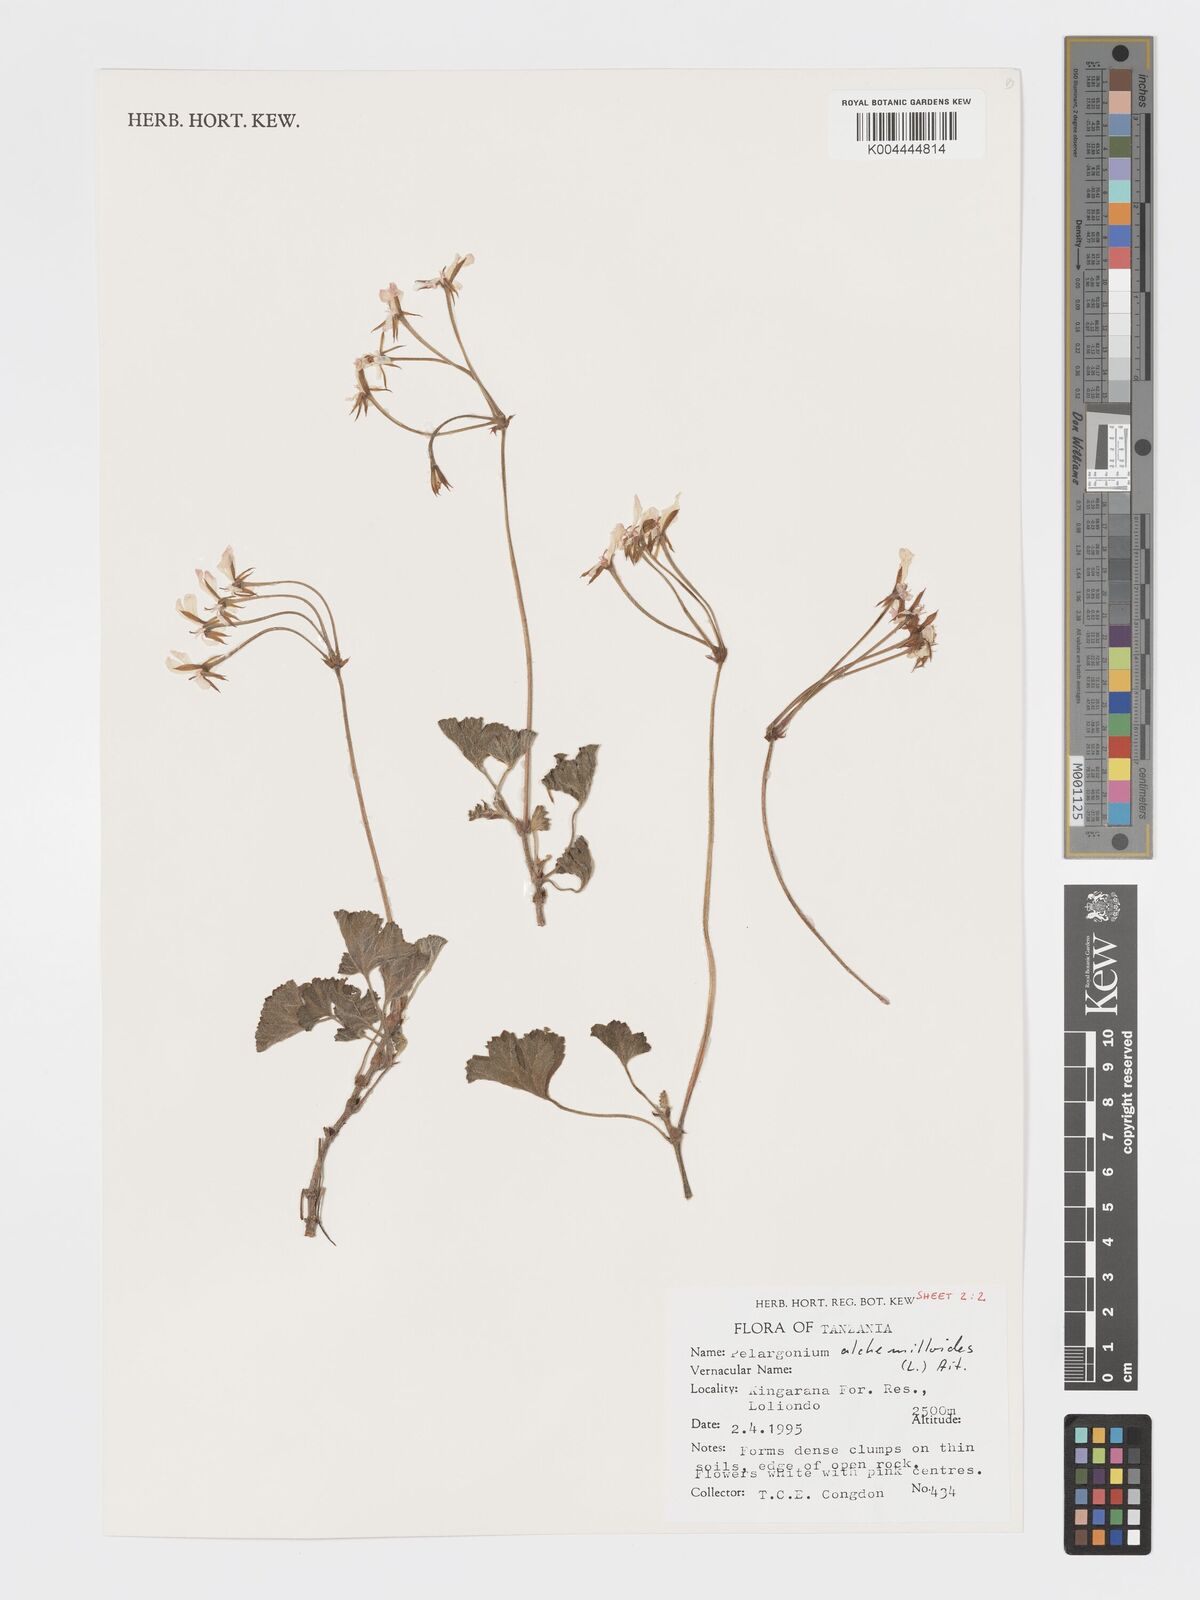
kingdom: Plantae
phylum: Tracheophyta
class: Magnoliopsida
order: Geraniales
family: Geraniaceae
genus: Pelargonium
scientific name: Pelargonium alchemilloides
